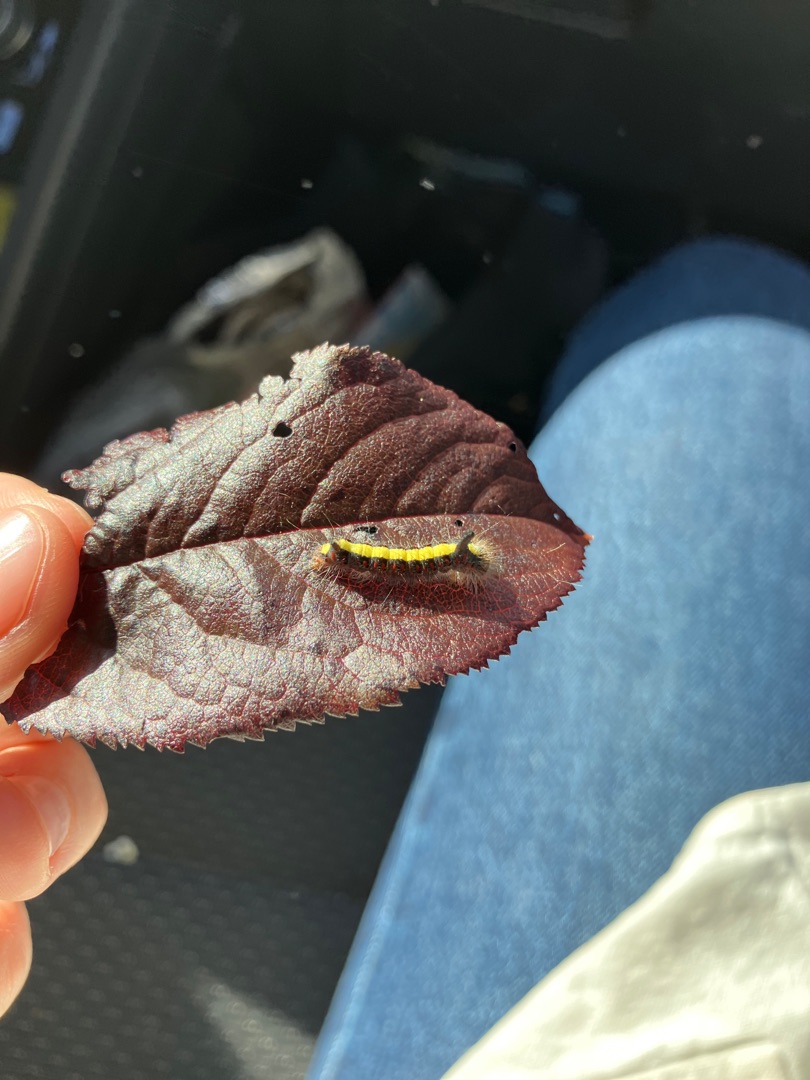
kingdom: Animalia
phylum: Arthropoda
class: Insecta
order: Lepidoptera
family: Noctuidae
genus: Acronicta
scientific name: Acronicta psi
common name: Psi-ugle
